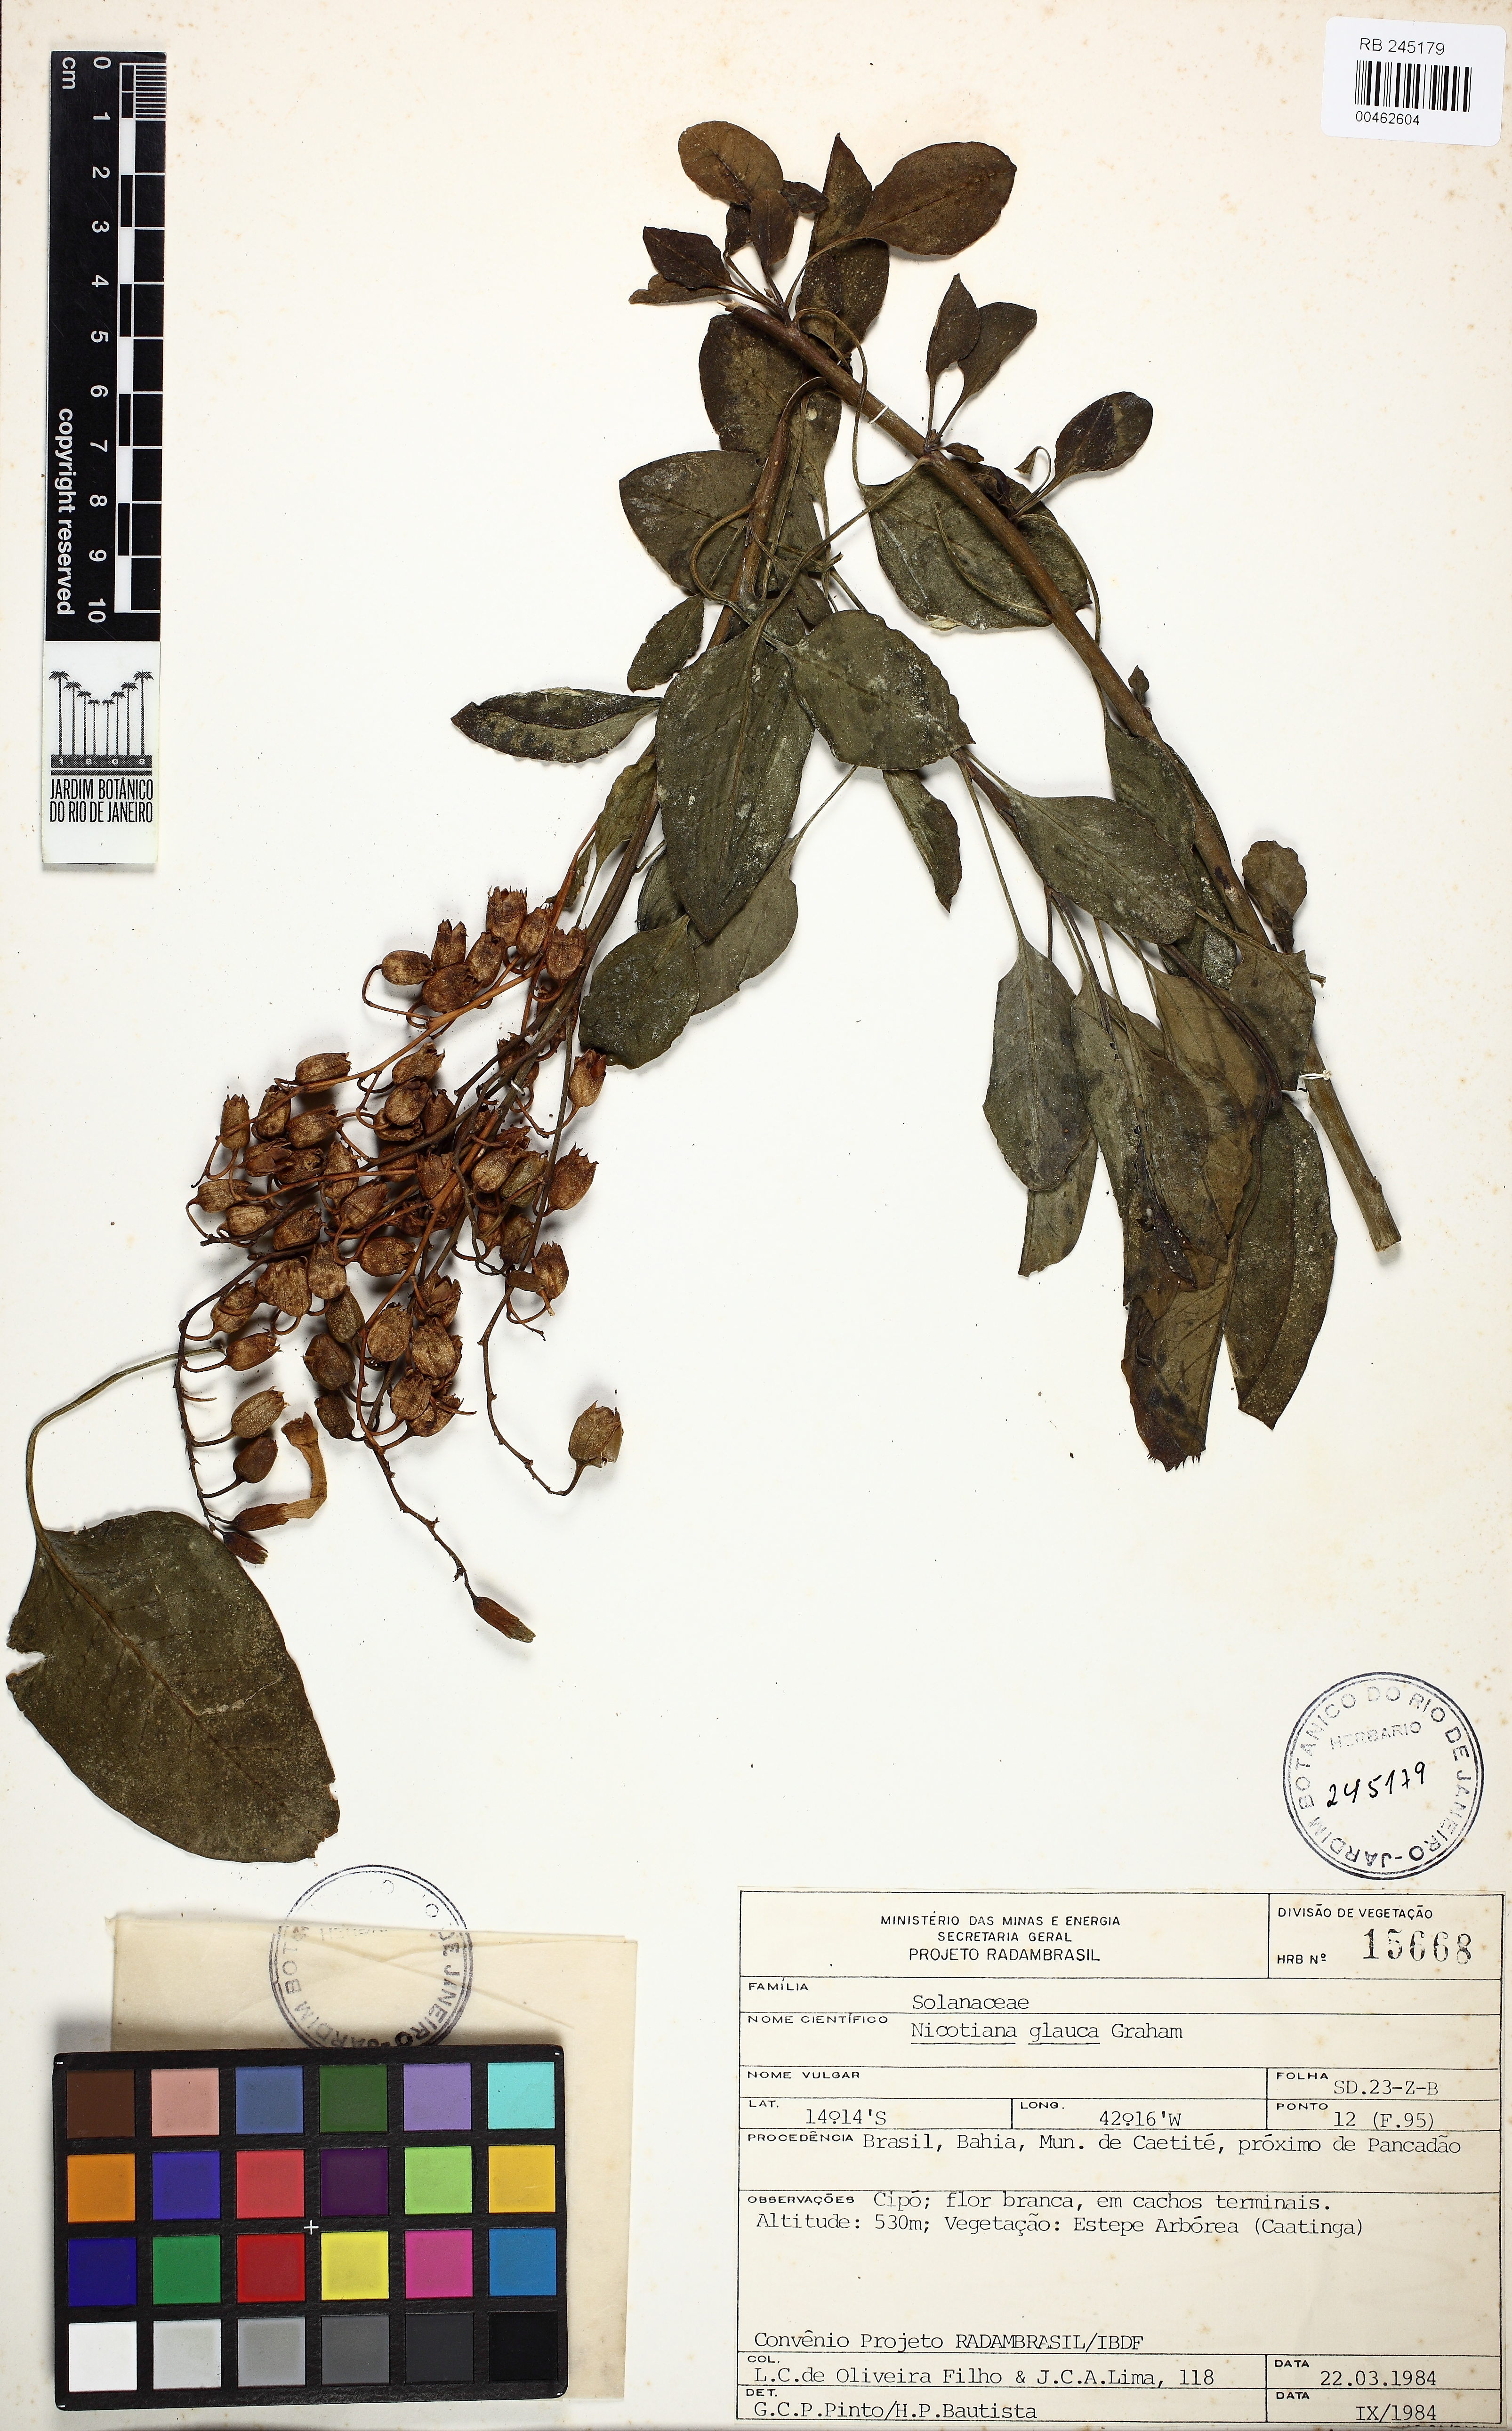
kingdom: Plantae
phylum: Tracheophyta
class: Magnoliopsida
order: Solanales
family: Solanaceae
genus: Nicotiana
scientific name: Nicotiana glauca
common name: Tree tobacco
